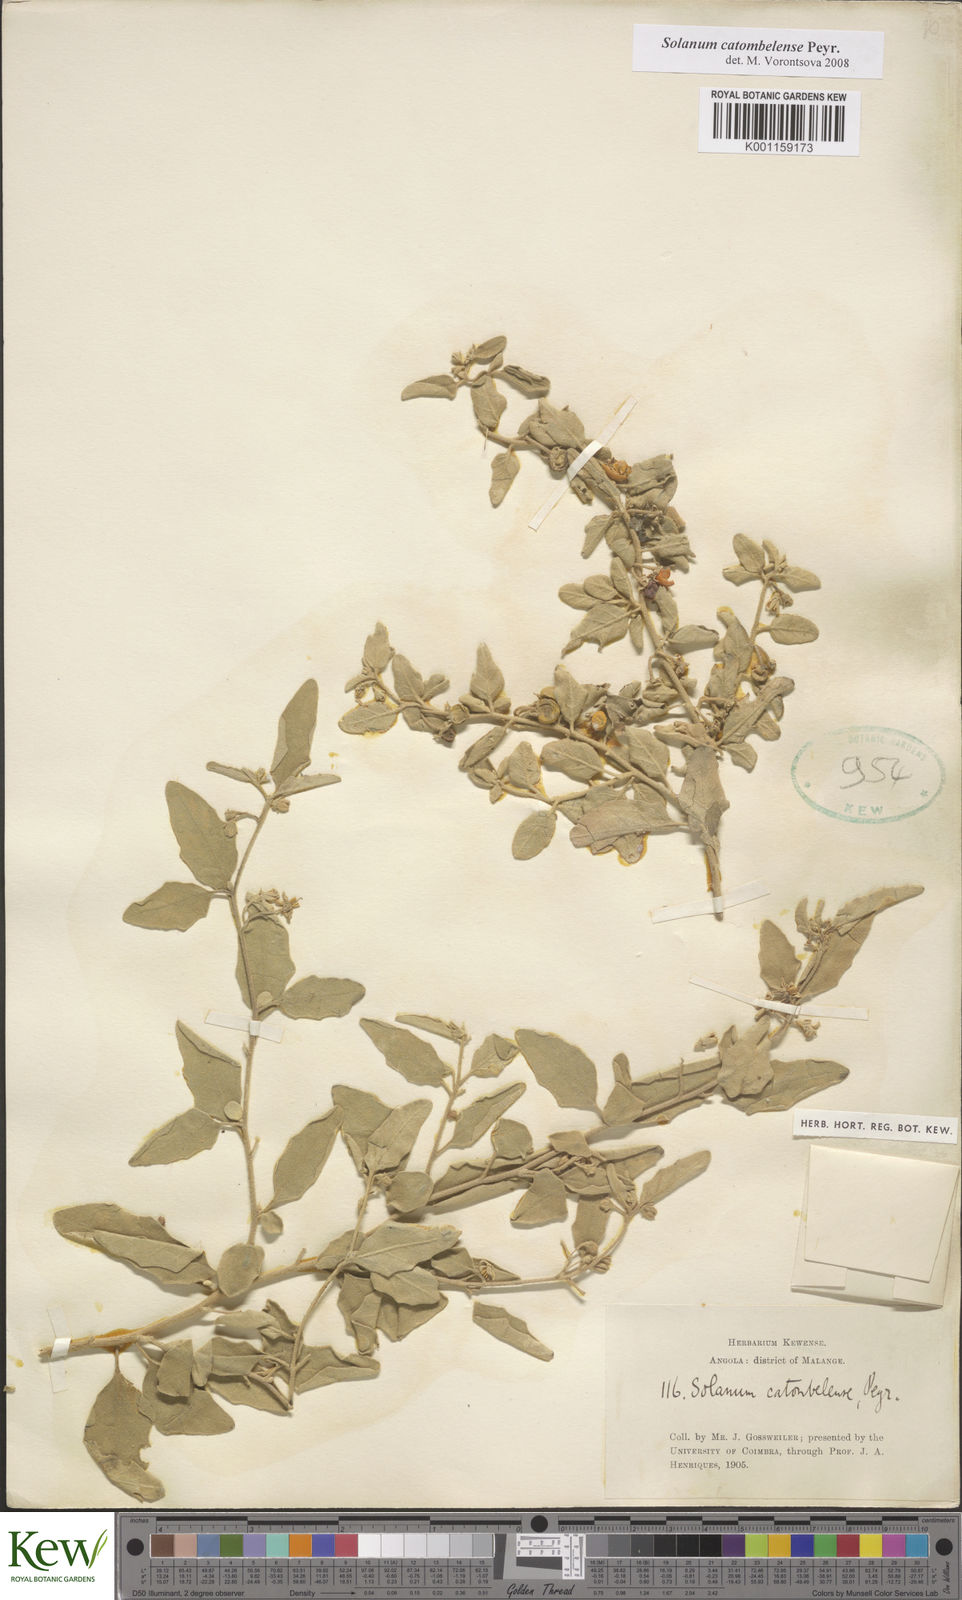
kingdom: Plantae
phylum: Tracheophyta
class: Magnoliopsida
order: Solanales
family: Solanaceae
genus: Solanum
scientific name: Solanum catombelense
